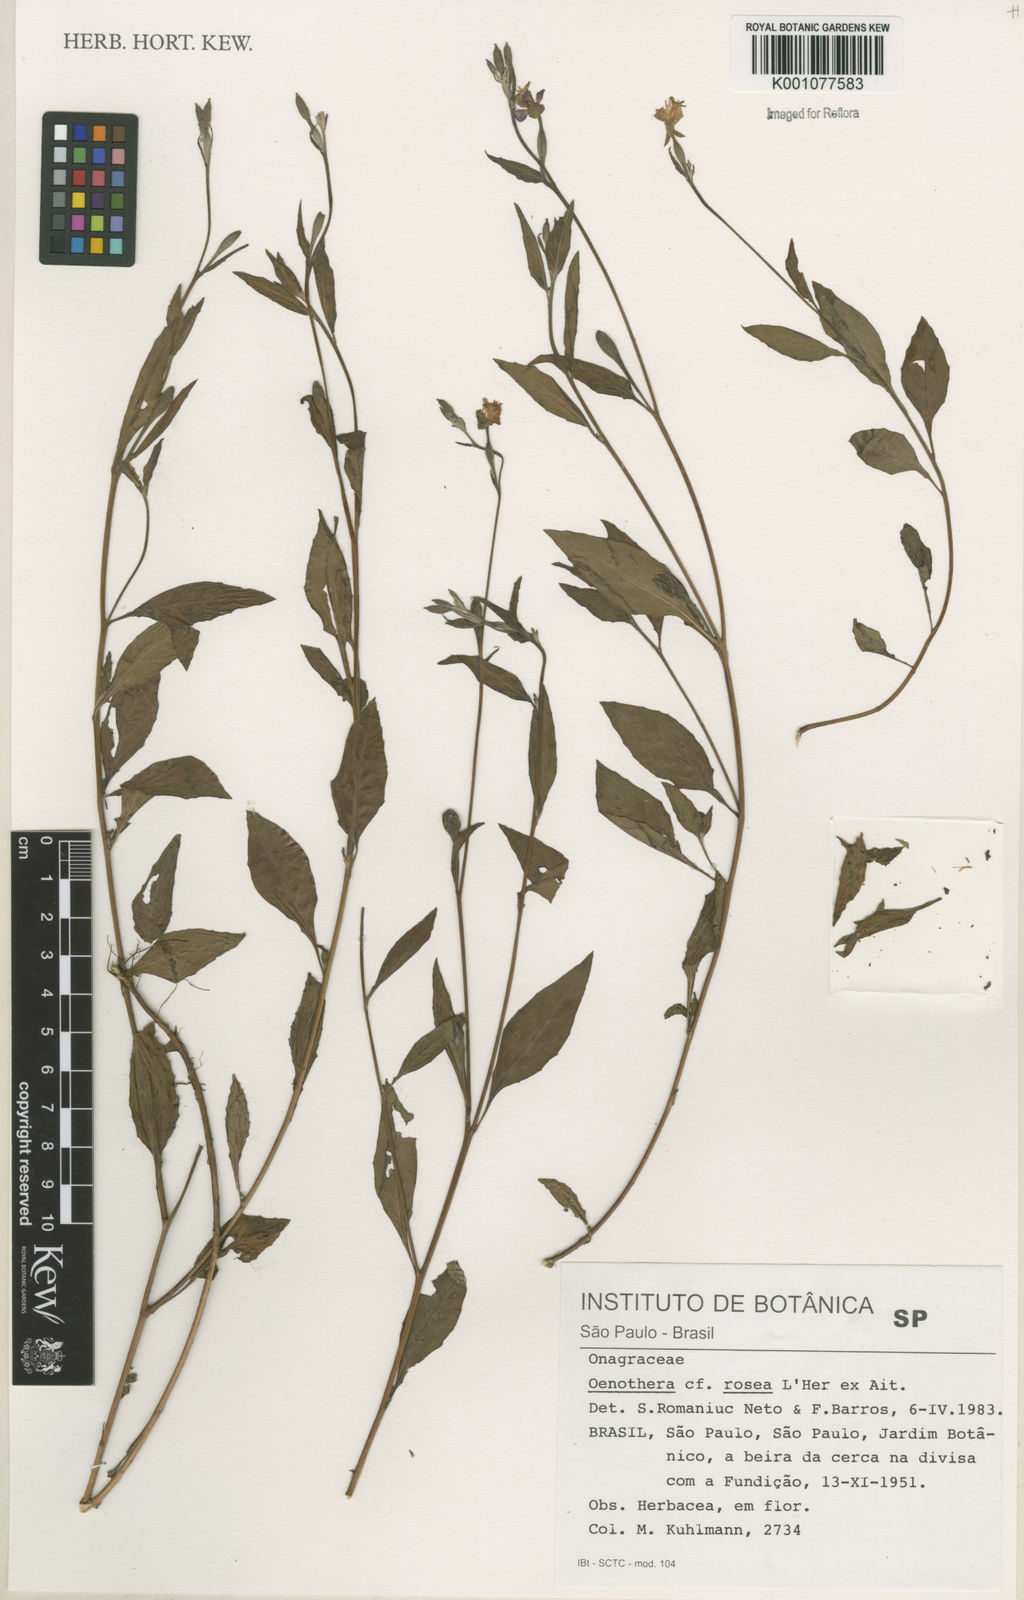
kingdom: Plantae
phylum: Tracheophyta
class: Magnoliopsida
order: Myrtales
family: Onagraceae
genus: Oenothera
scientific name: Oenothera rosea
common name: Rosy evening-primrose
